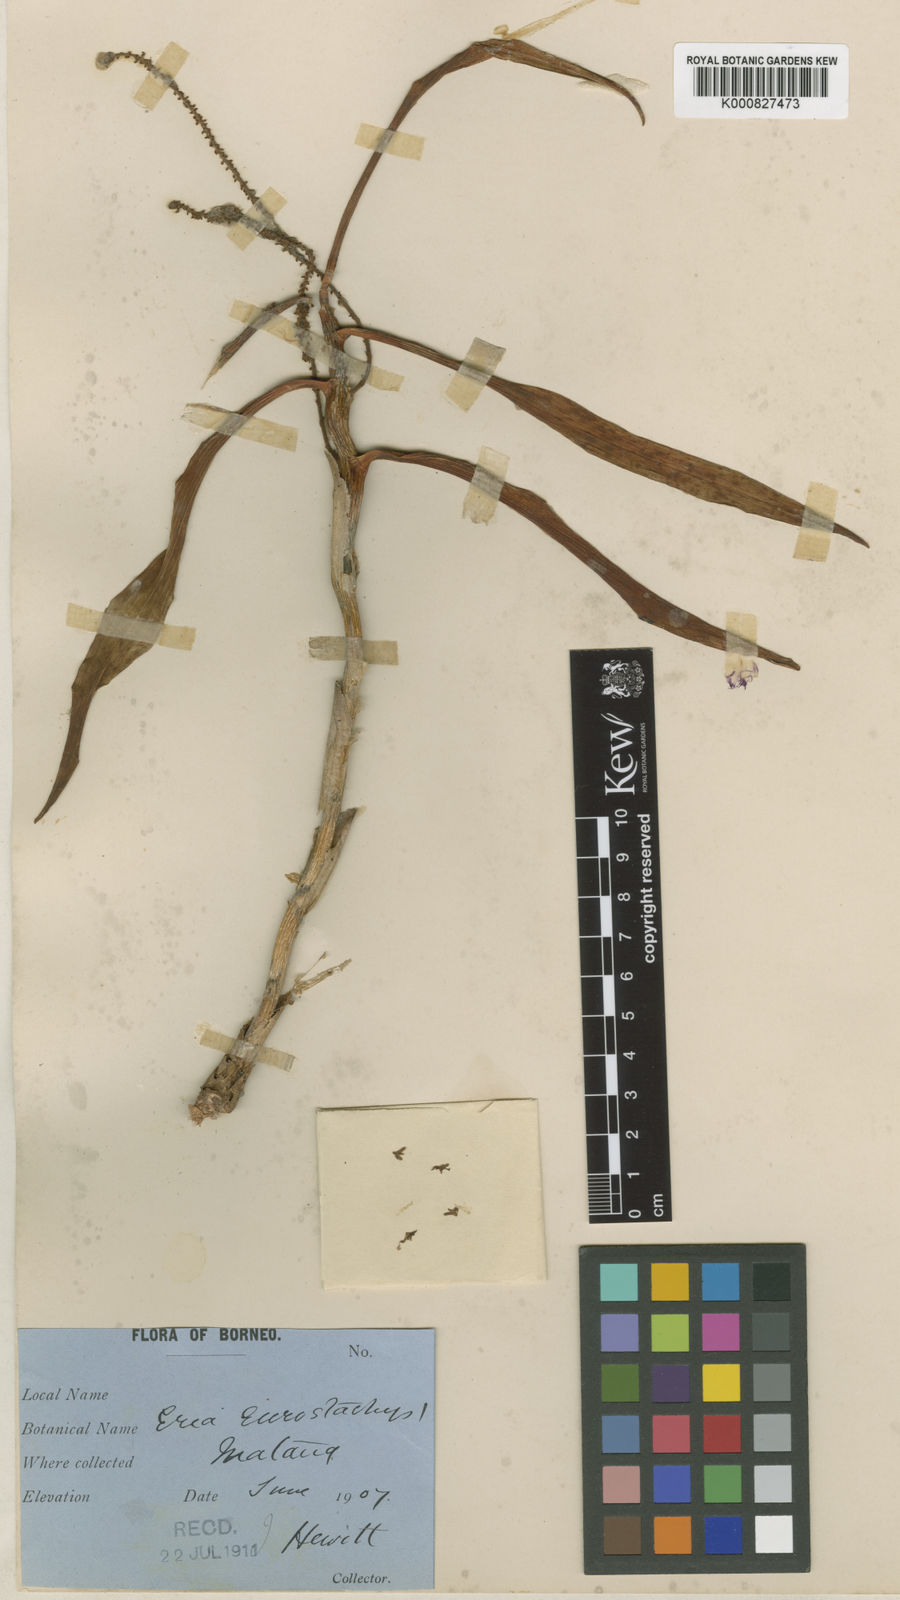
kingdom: Plantae
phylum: Tracheophyta
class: Liliopsida
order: Asparagales
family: Orchidaceae
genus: Pinalia
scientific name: Pinalia eurostachys
